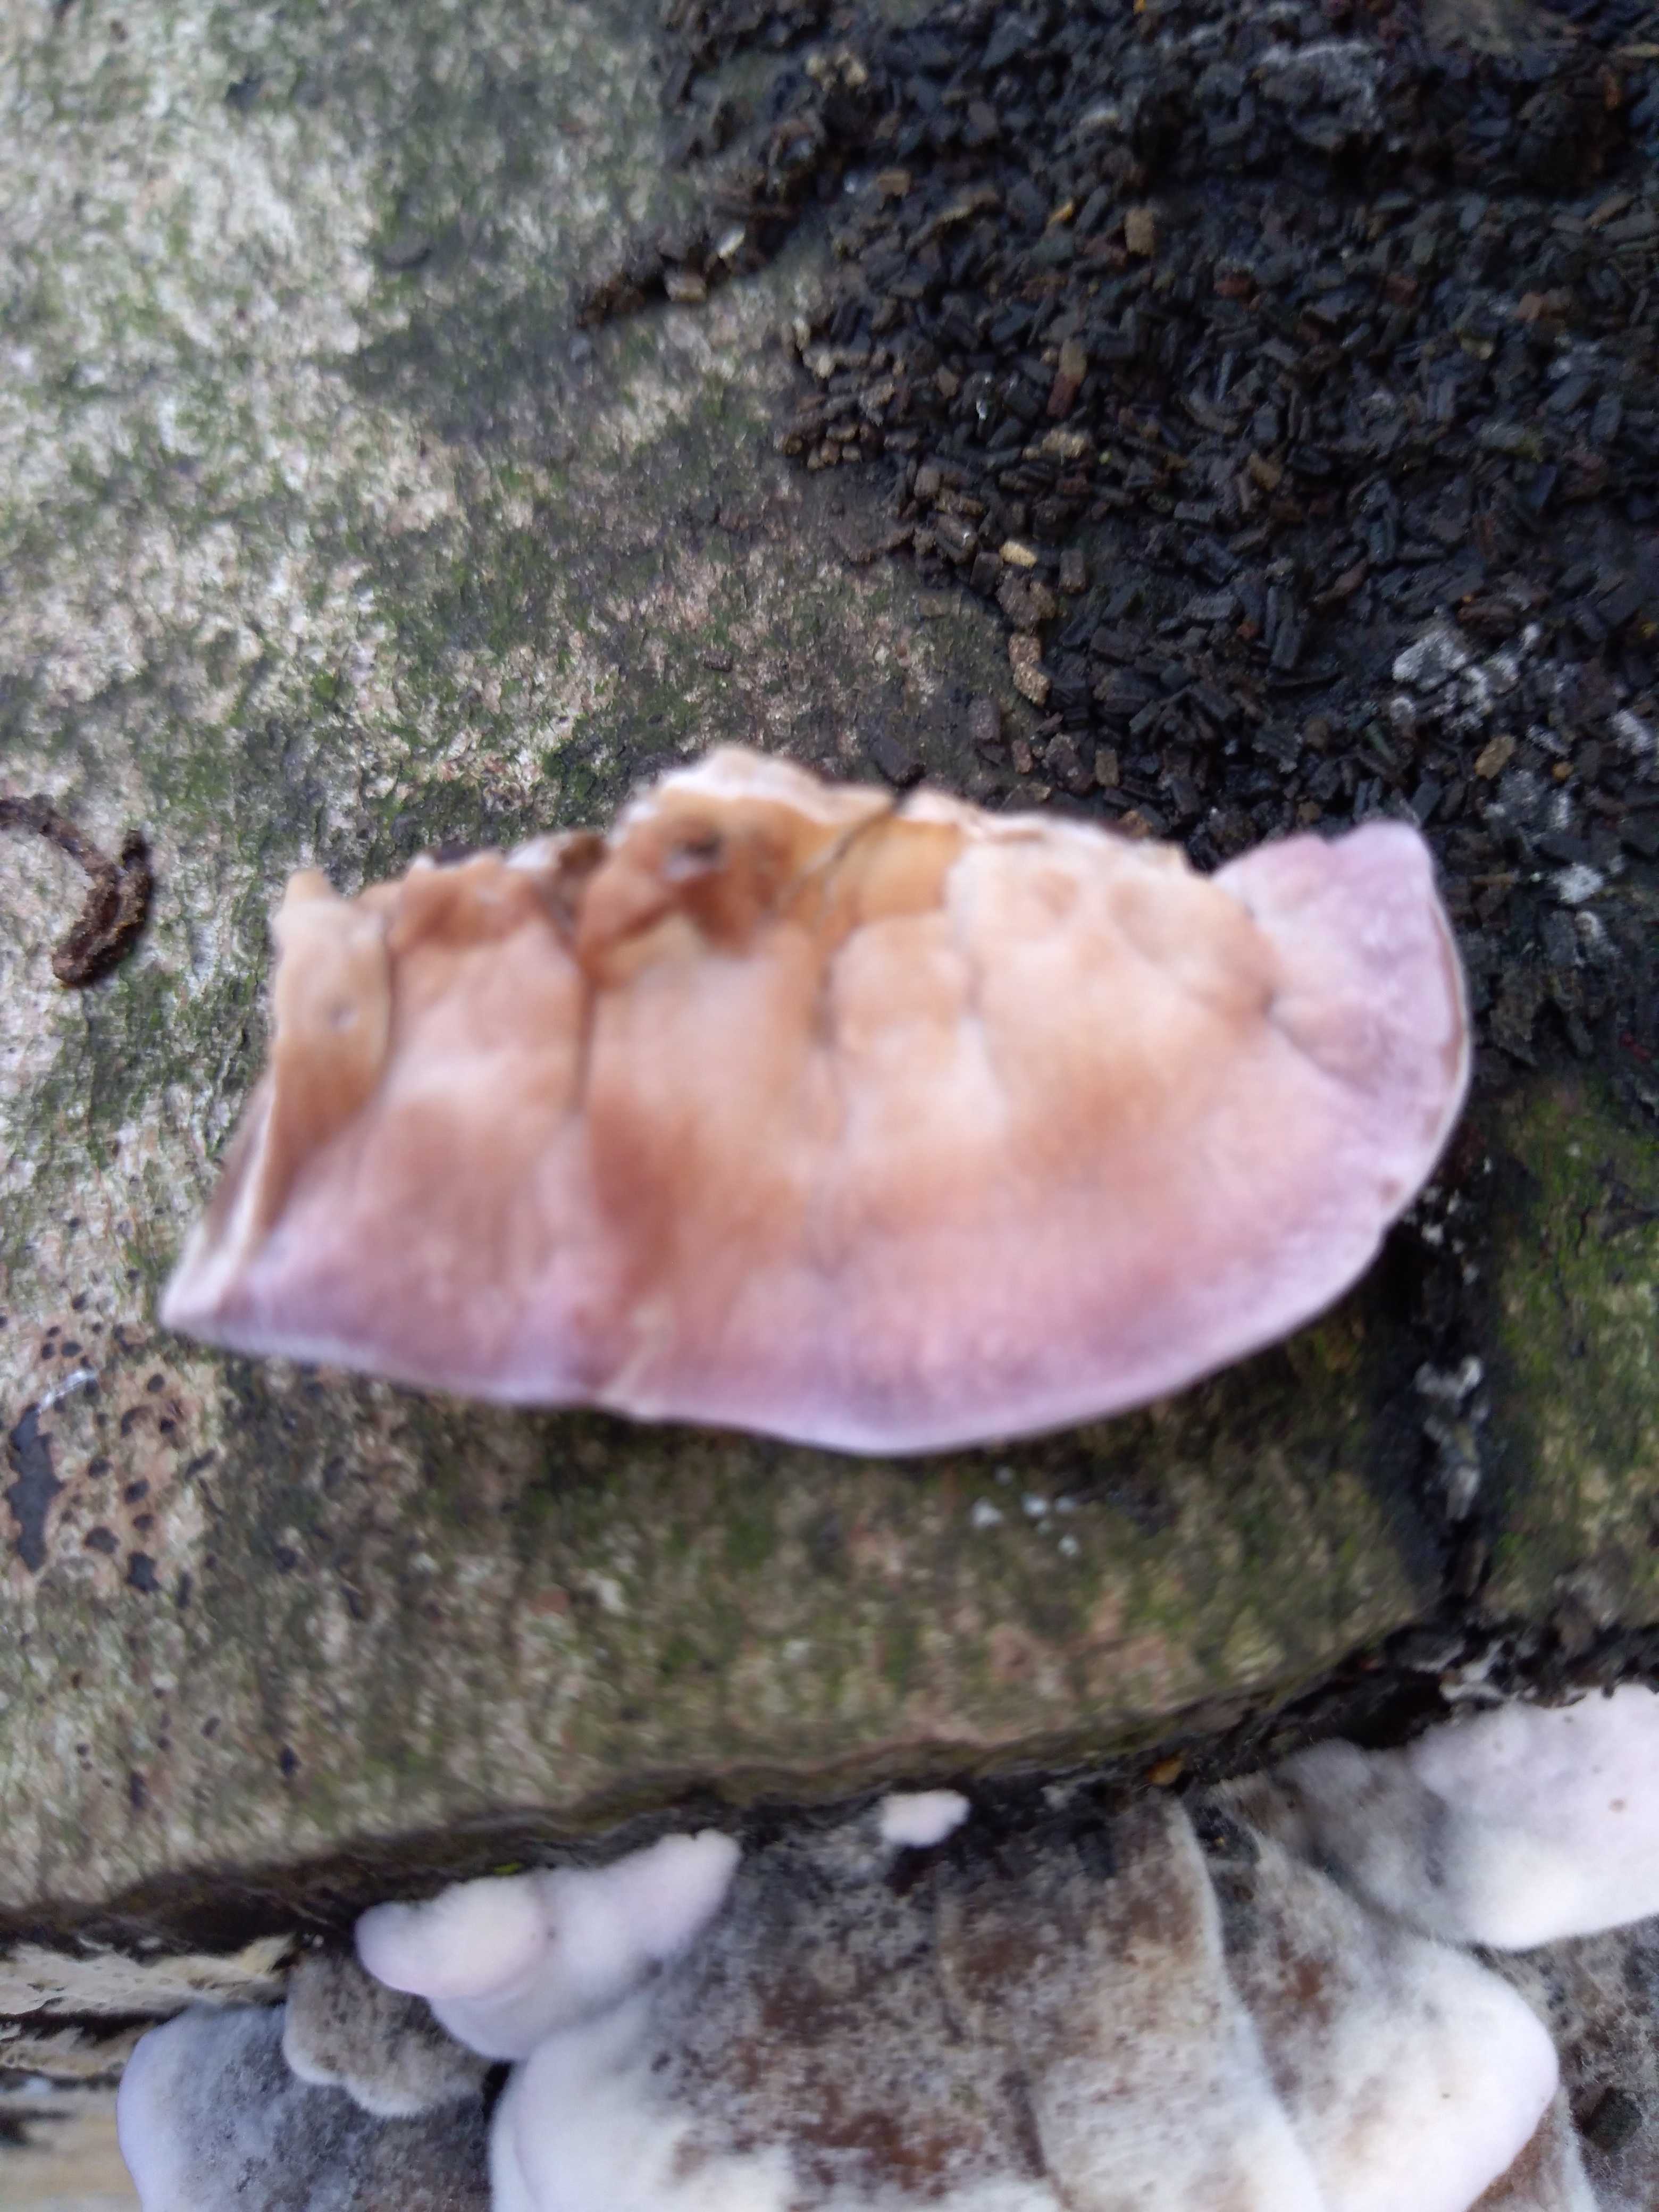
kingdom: Fungi
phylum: Basidiomycota
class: Agaricomycetes
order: Agaricales
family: Cyphellaceae
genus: Chondrostereum
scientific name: Chondrostereum purpureum
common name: purpurlædersvamp
